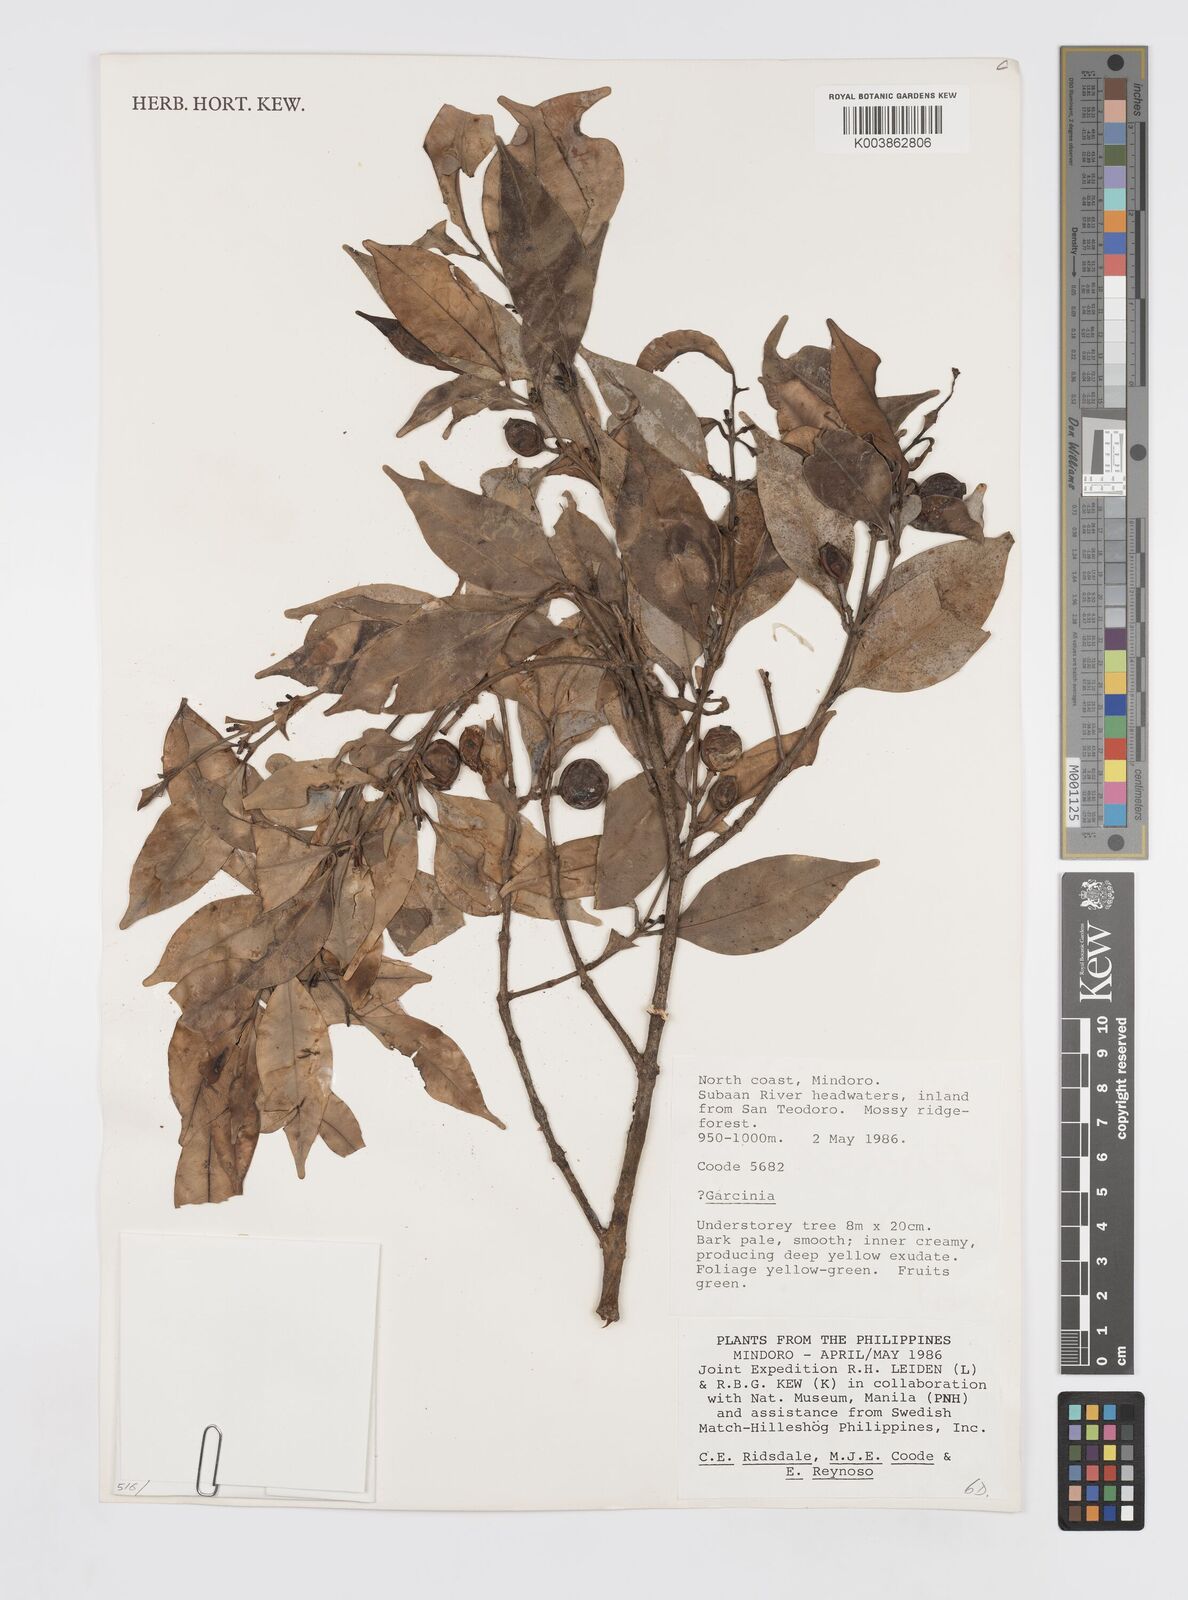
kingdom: Plantae
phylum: Tracheophyta
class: Magnoliopsida
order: Malpighiales
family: Clusiaceae
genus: Garcinia
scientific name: Garcinia
